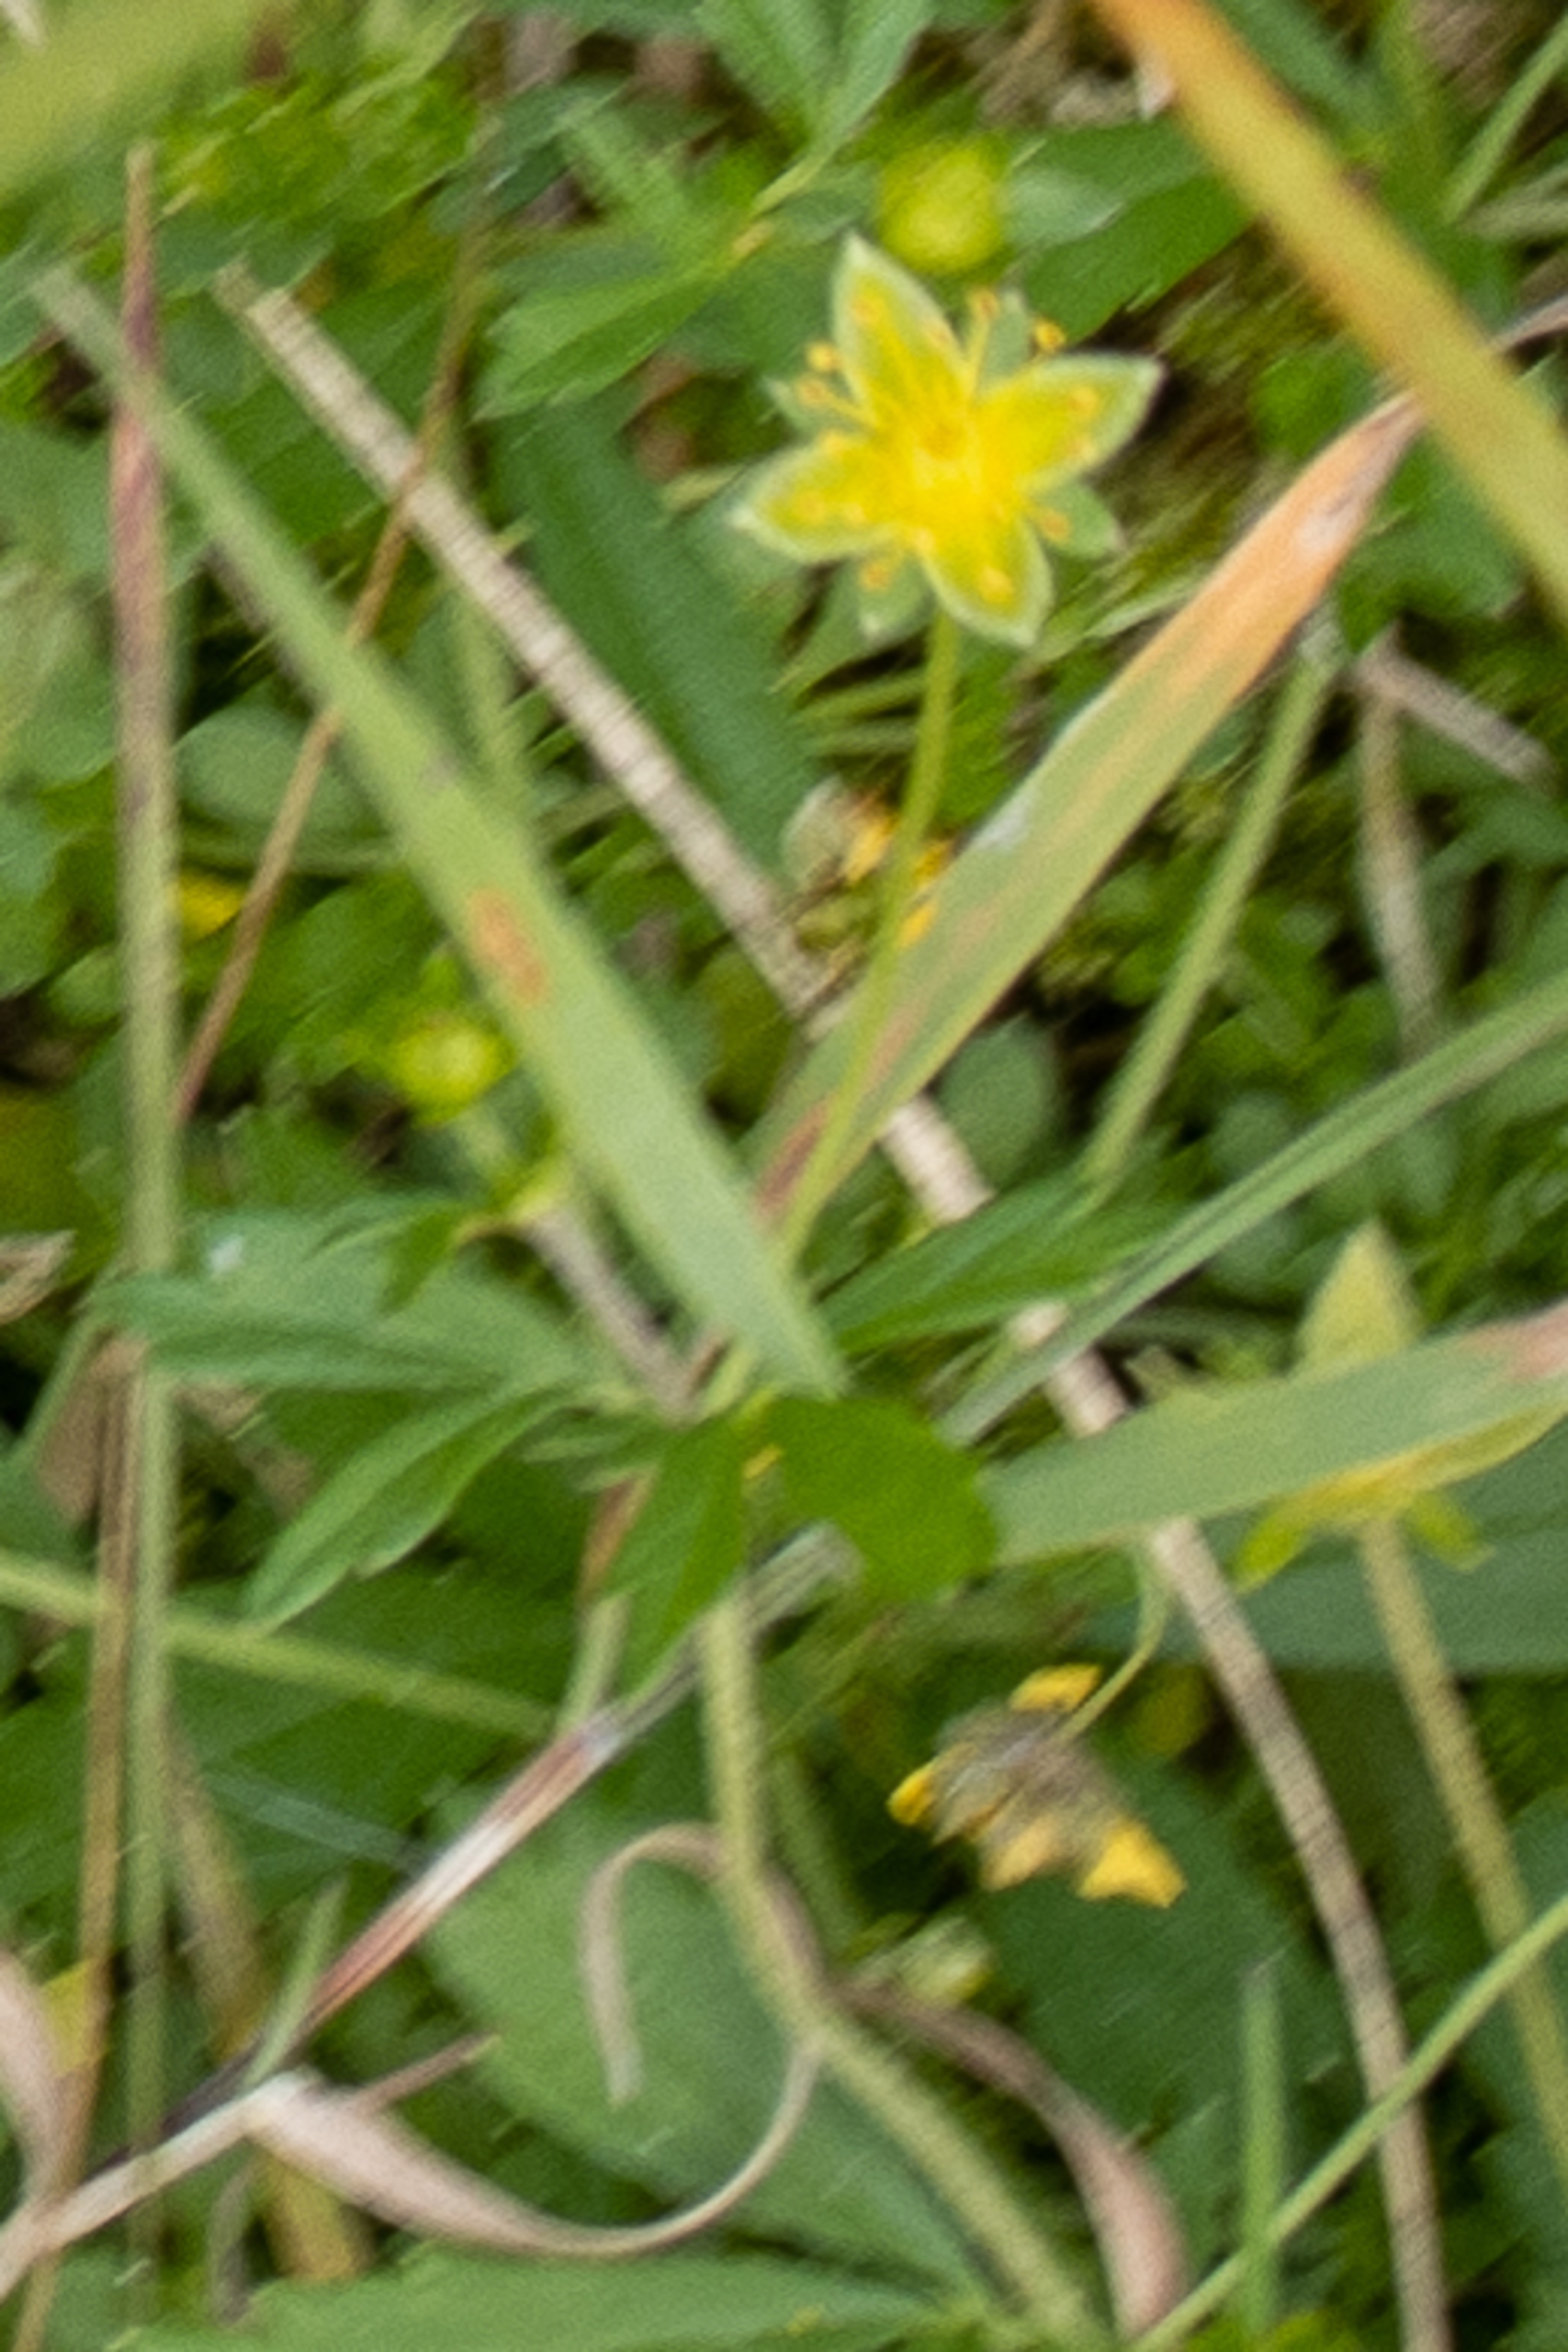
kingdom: Plantae
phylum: Tracheophyta
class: Magnoliopsida
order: Rosales
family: Rosaceae
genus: Potentilla
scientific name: Potentilla erecta
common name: Tormentil
